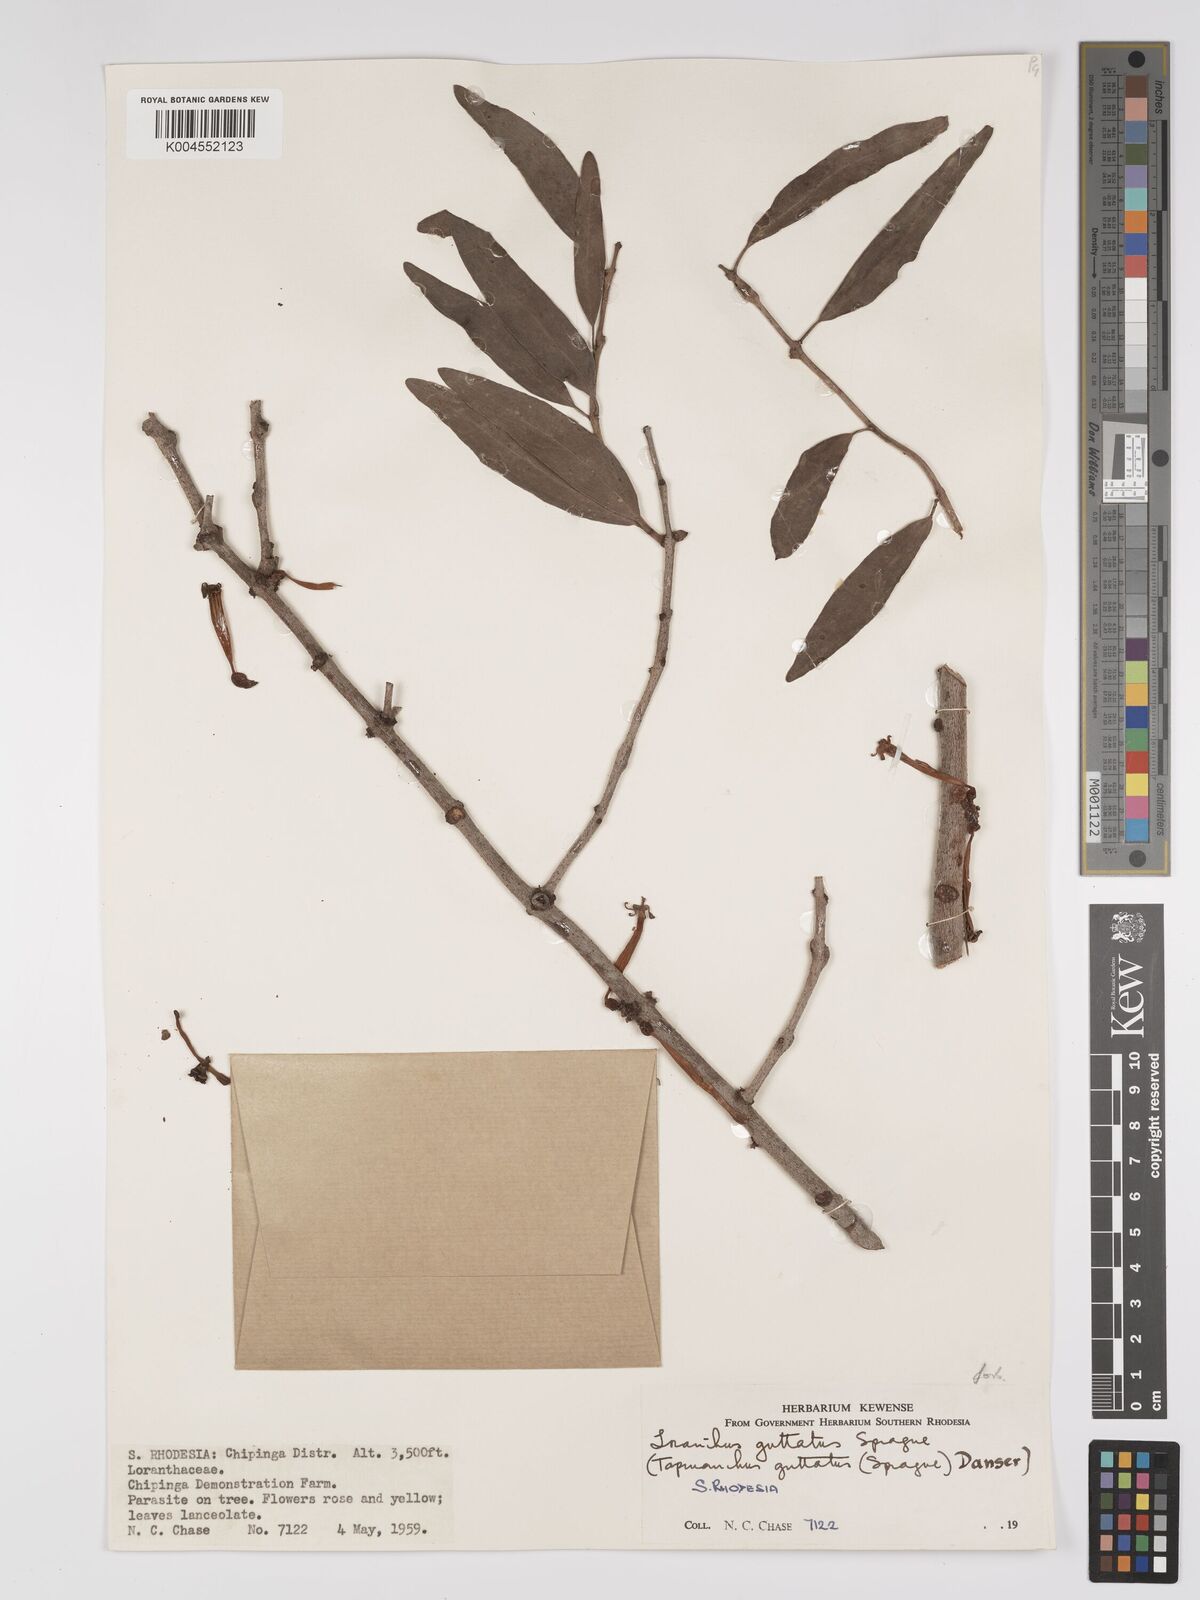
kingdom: Plantae
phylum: Tracheophyta
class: Magnoliopsida
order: Santalales
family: Loranthaceae
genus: Tapinanthus
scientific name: Tapinanthus forbesii
